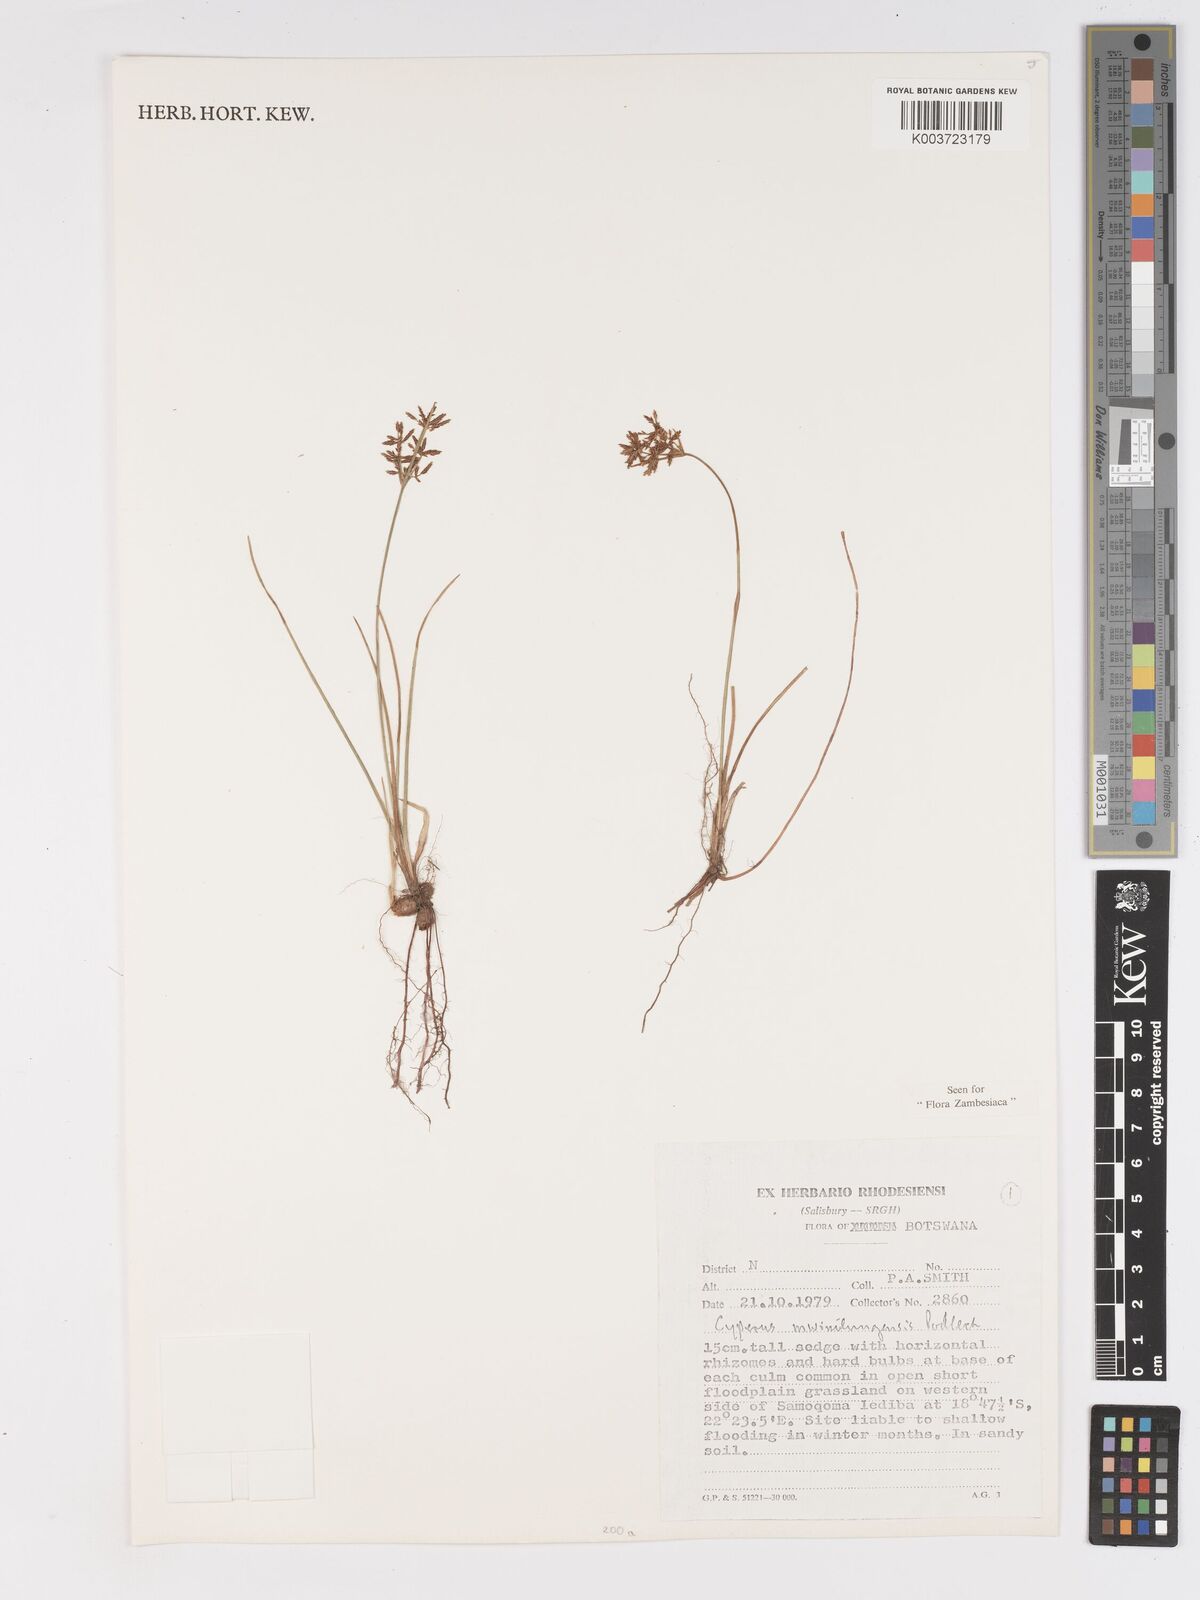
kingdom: Plantae
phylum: Tracheophyta
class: Liliopsida
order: Poales
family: Cyperaceae
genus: Cyperus
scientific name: Cyperus mwinilungensis
